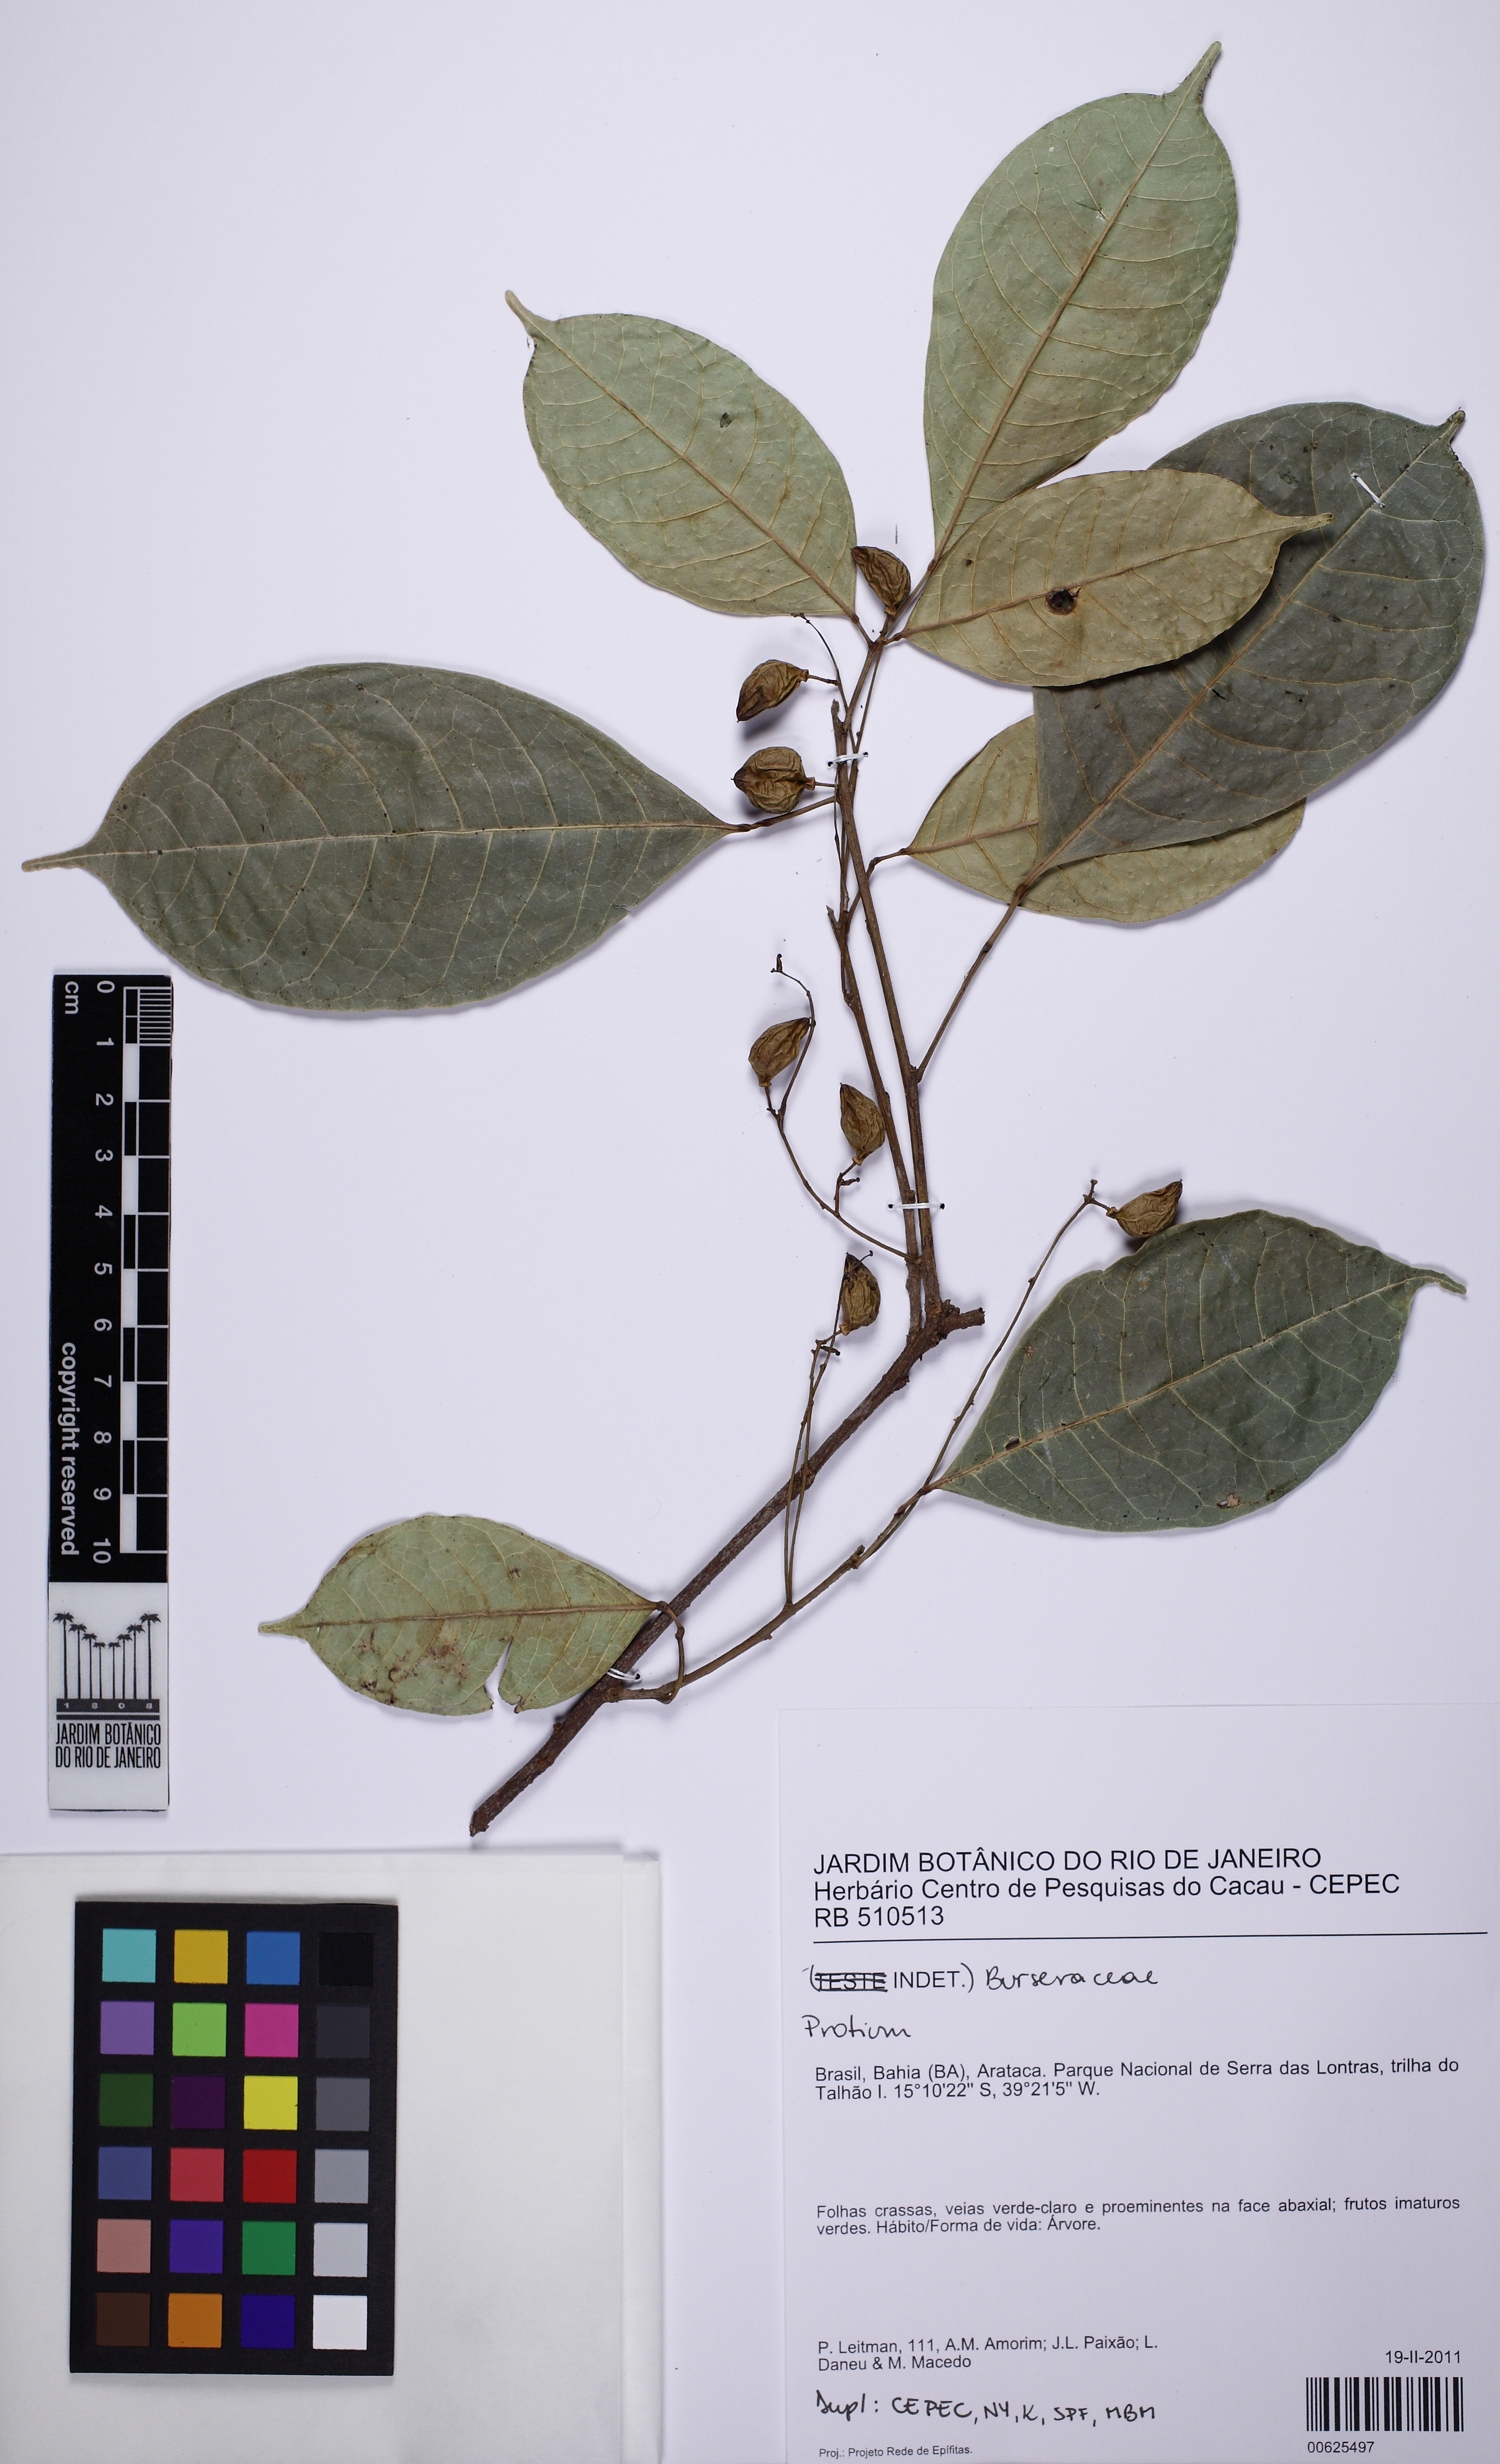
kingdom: Plantae
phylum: Tracheophyta
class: Magnoliopsida
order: Sapindales
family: Burseraceae
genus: Protium
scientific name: Protium calanense
